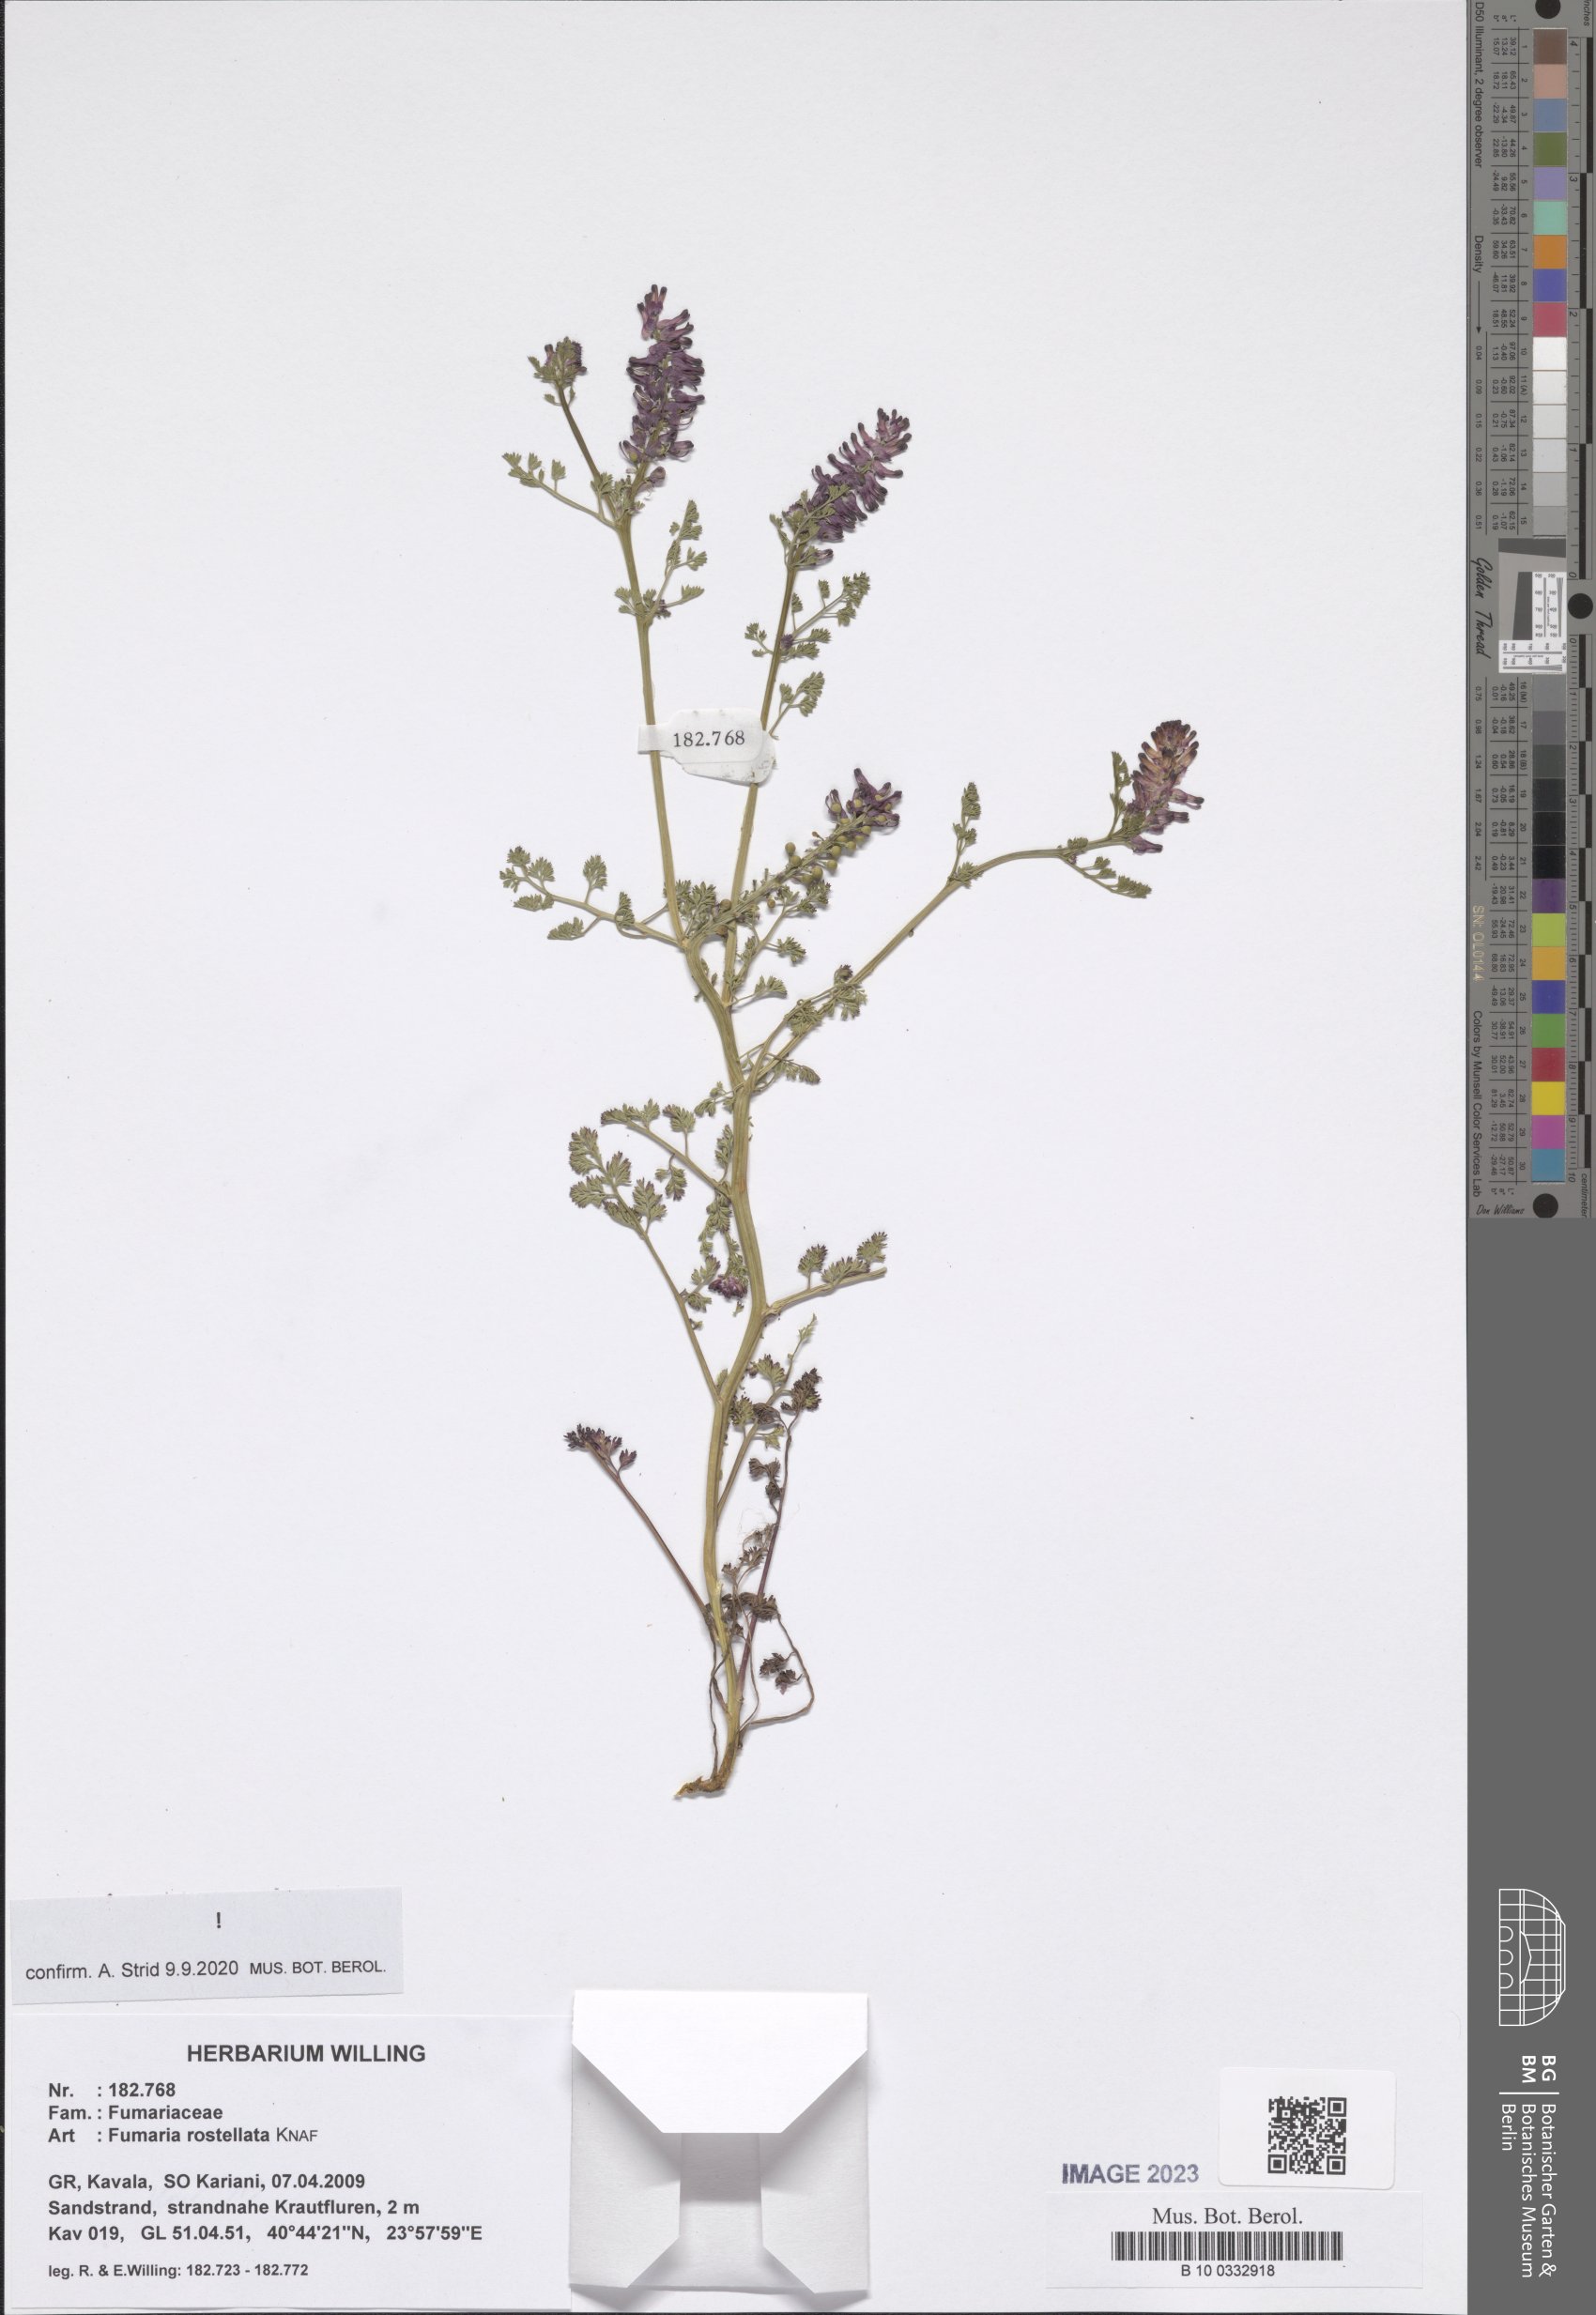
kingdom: Plantae
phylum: Tracheophyta
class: Magnoliopsida
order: Ranunculales
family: Papaveraceae
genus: Fumaria
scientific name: Fumaria rostellata
